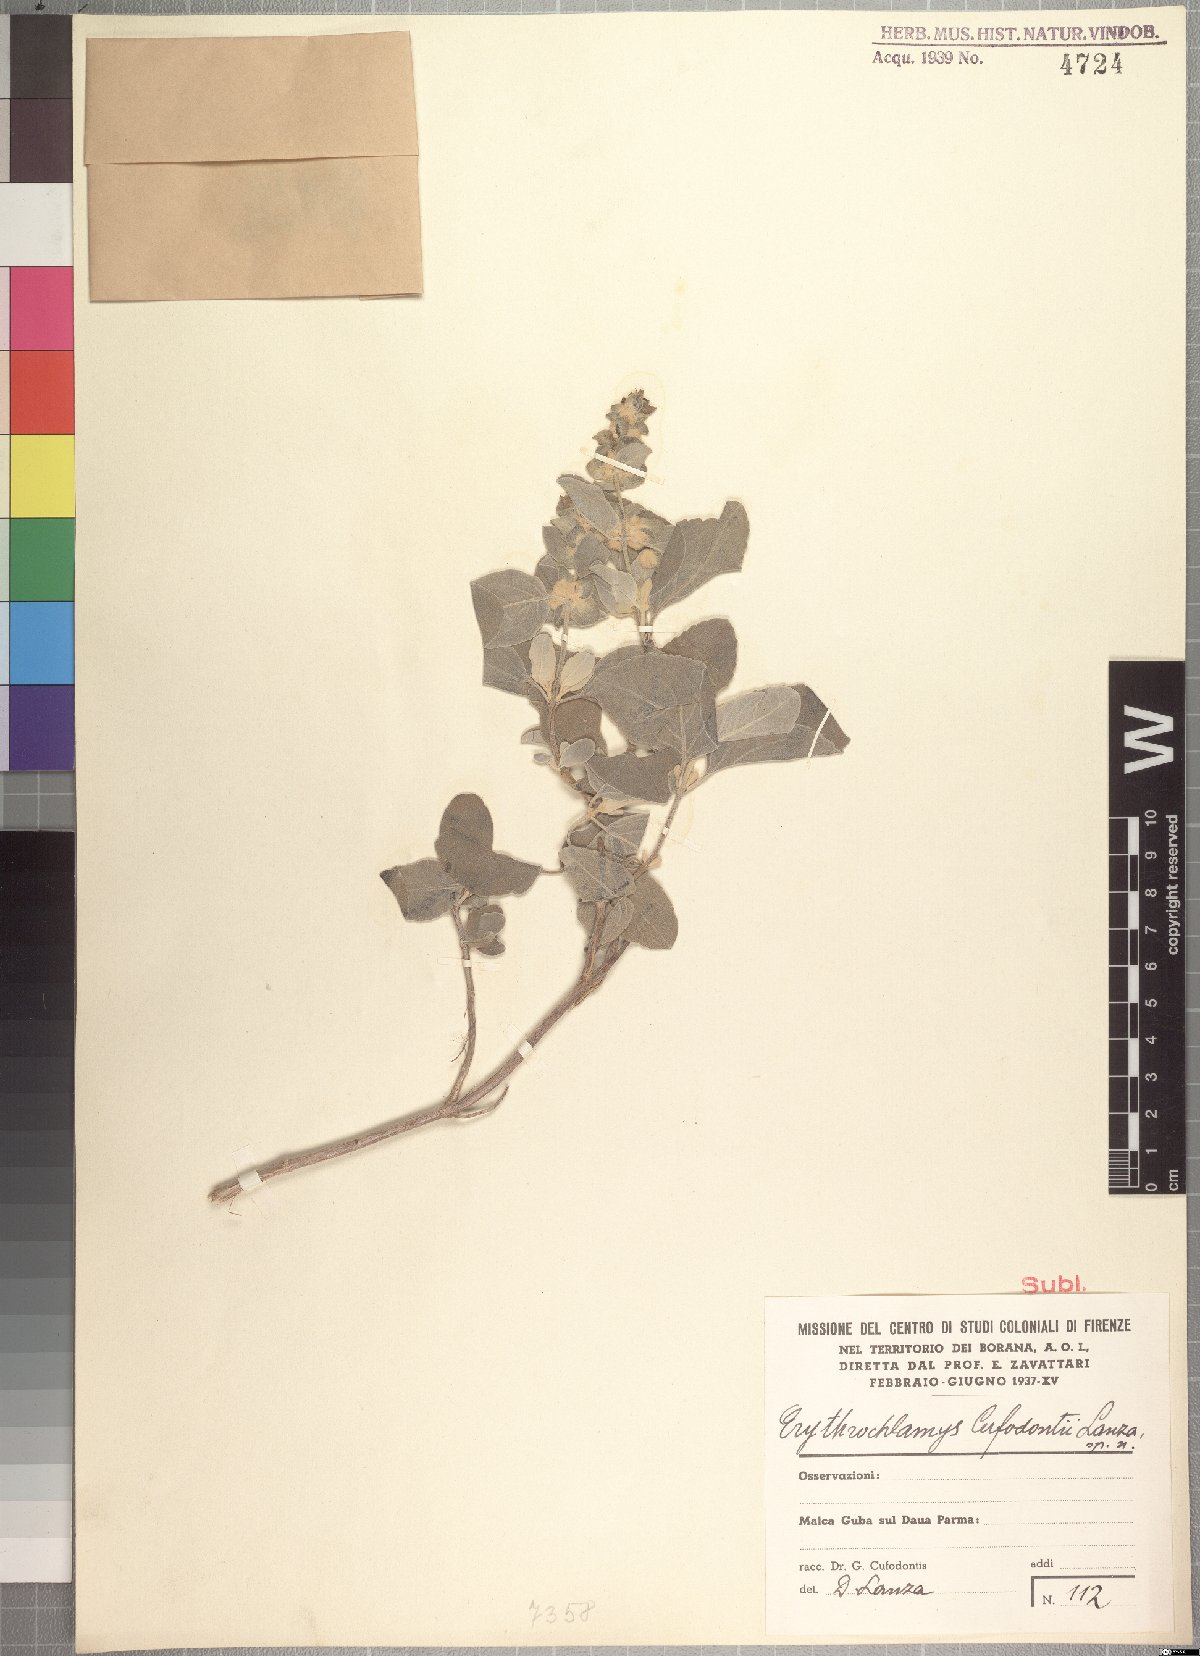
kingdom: Plantae
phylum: Tracheophyta
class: Magnoliopsida
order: Lamiales
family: Lamiaceae
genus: Ocimum
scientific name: Ocimum cufodontii
